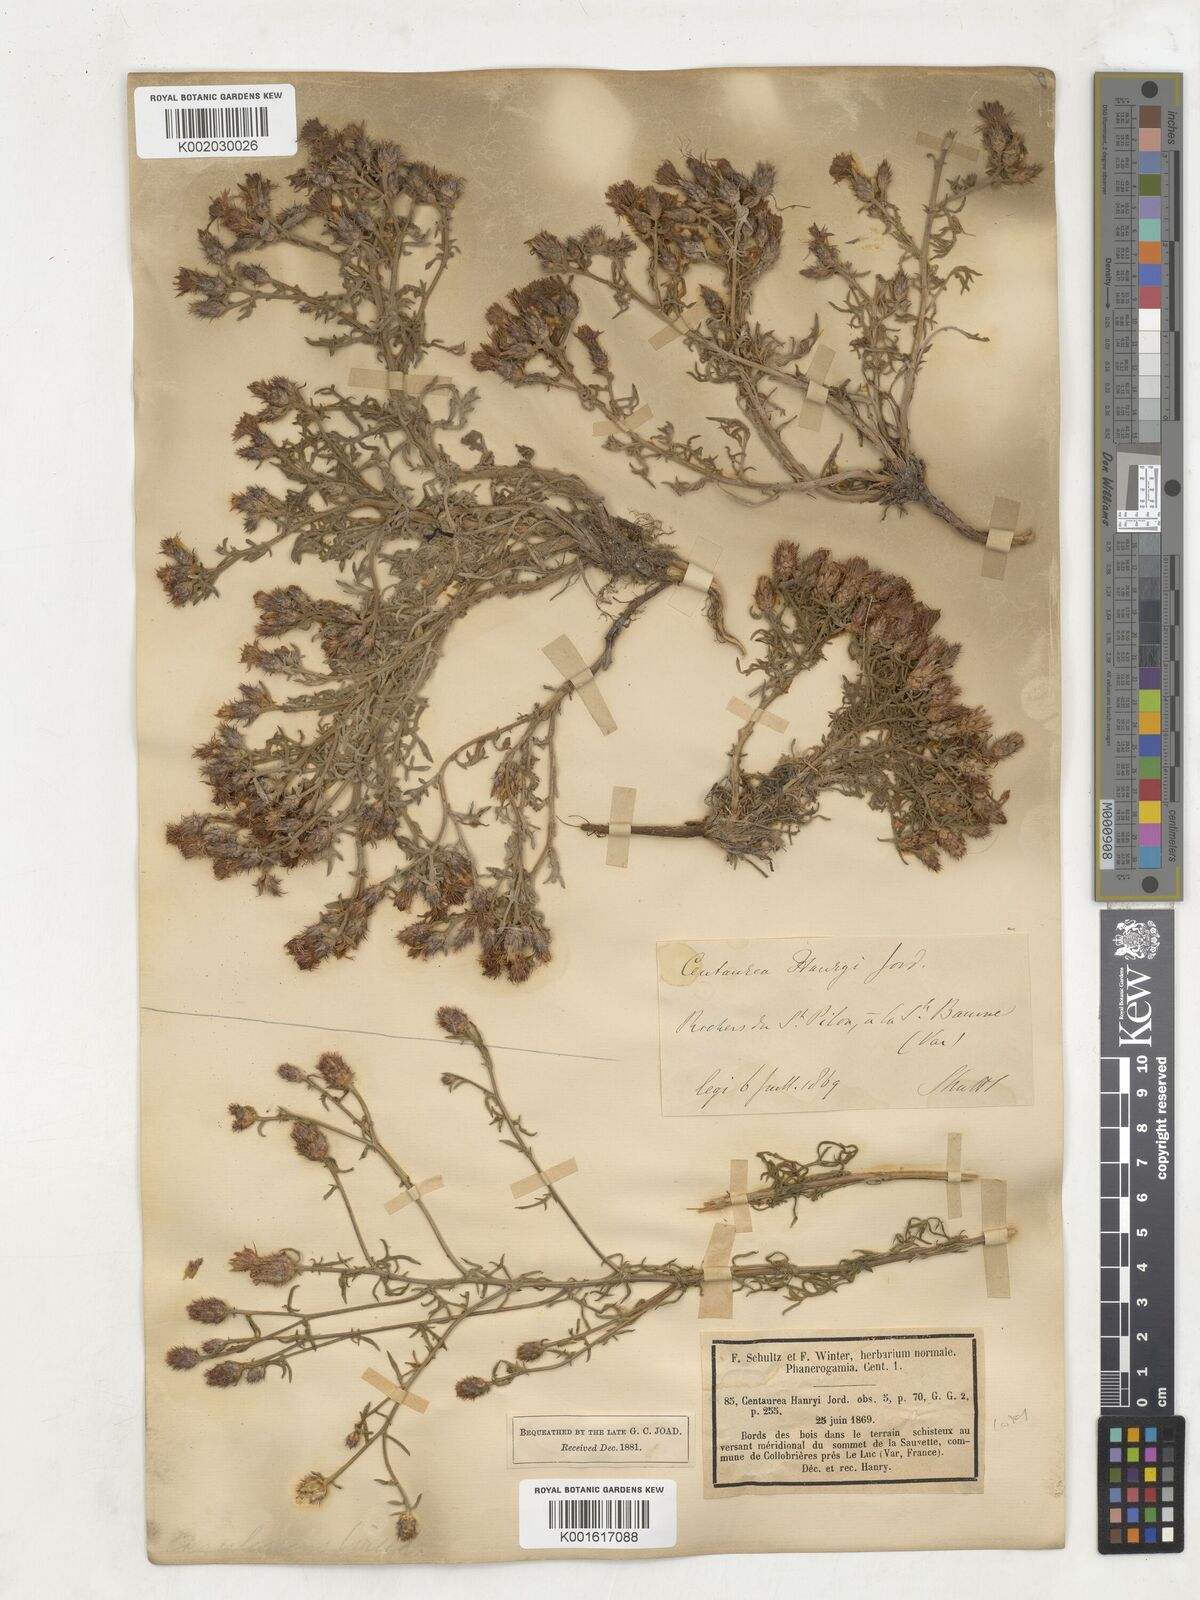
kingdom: Plantae
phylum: Tracheophyta
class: Magnoliopsida
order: Asterales
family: Asteraceae
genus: Centaurea
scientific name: Centaurea hanryi
